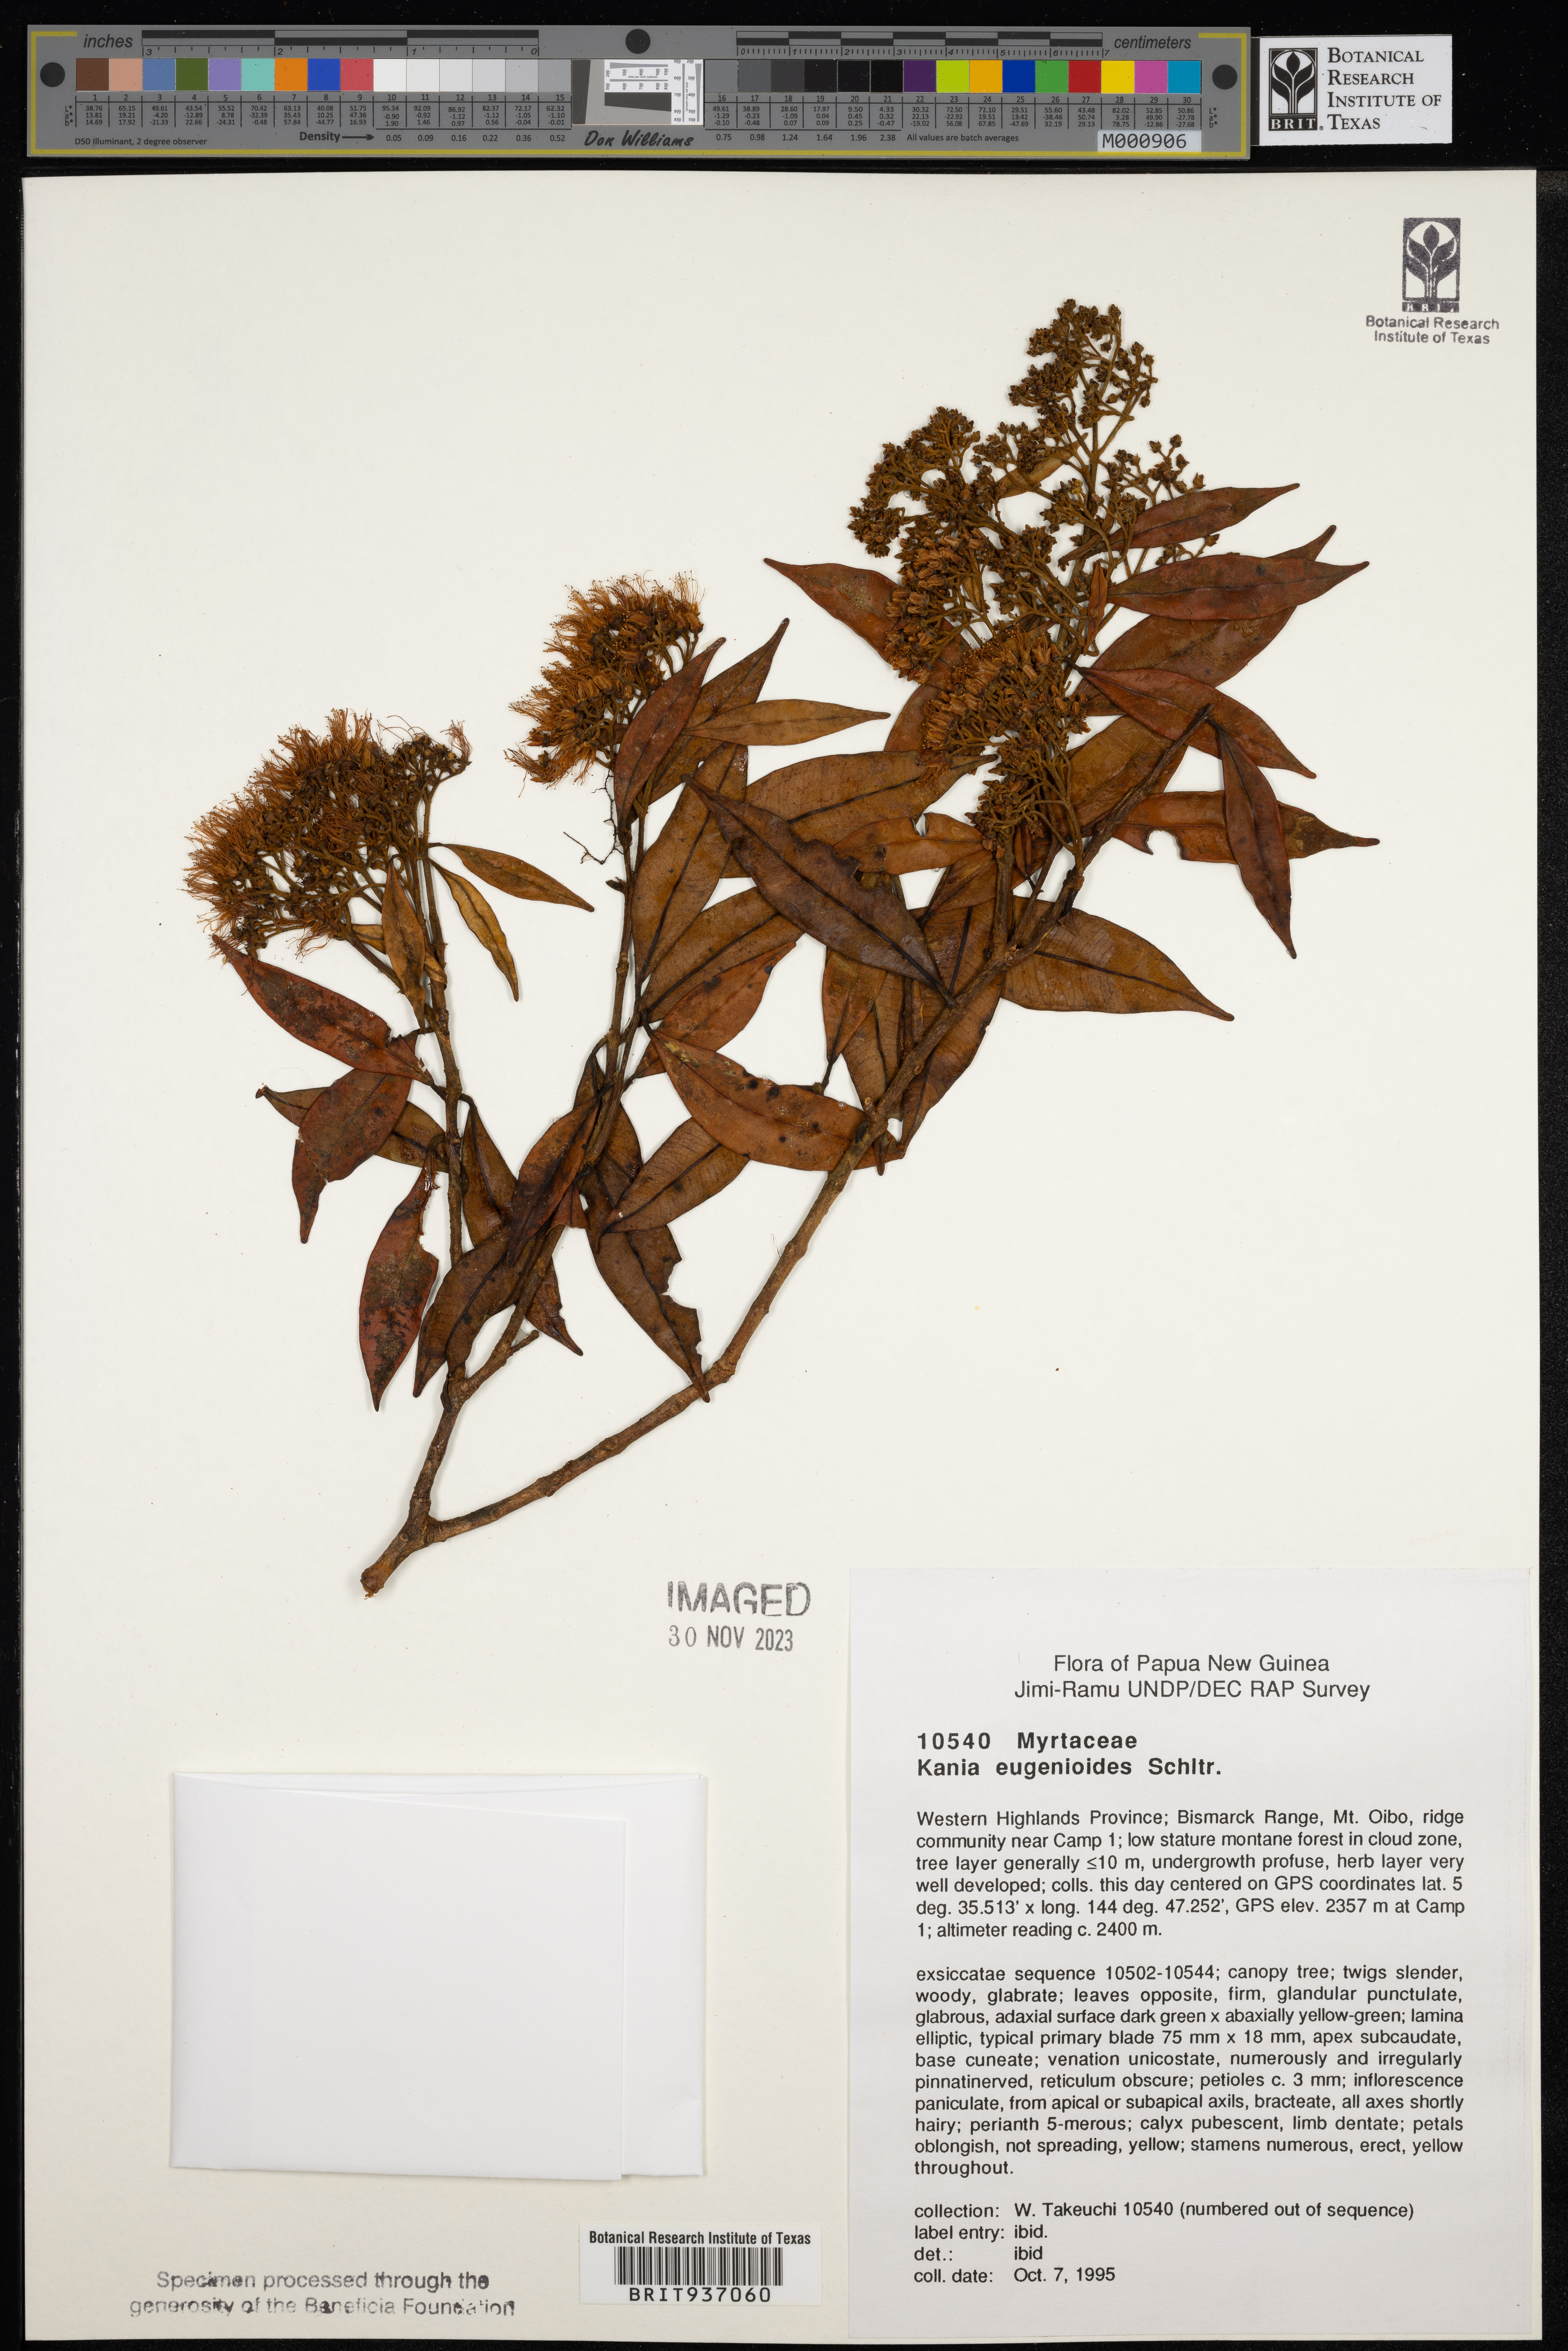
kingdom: Plantae
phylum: Tracheophyta
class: Magnoliopsida
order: Myrtales
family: Myrtaceae
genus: Kania
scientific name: Kania
